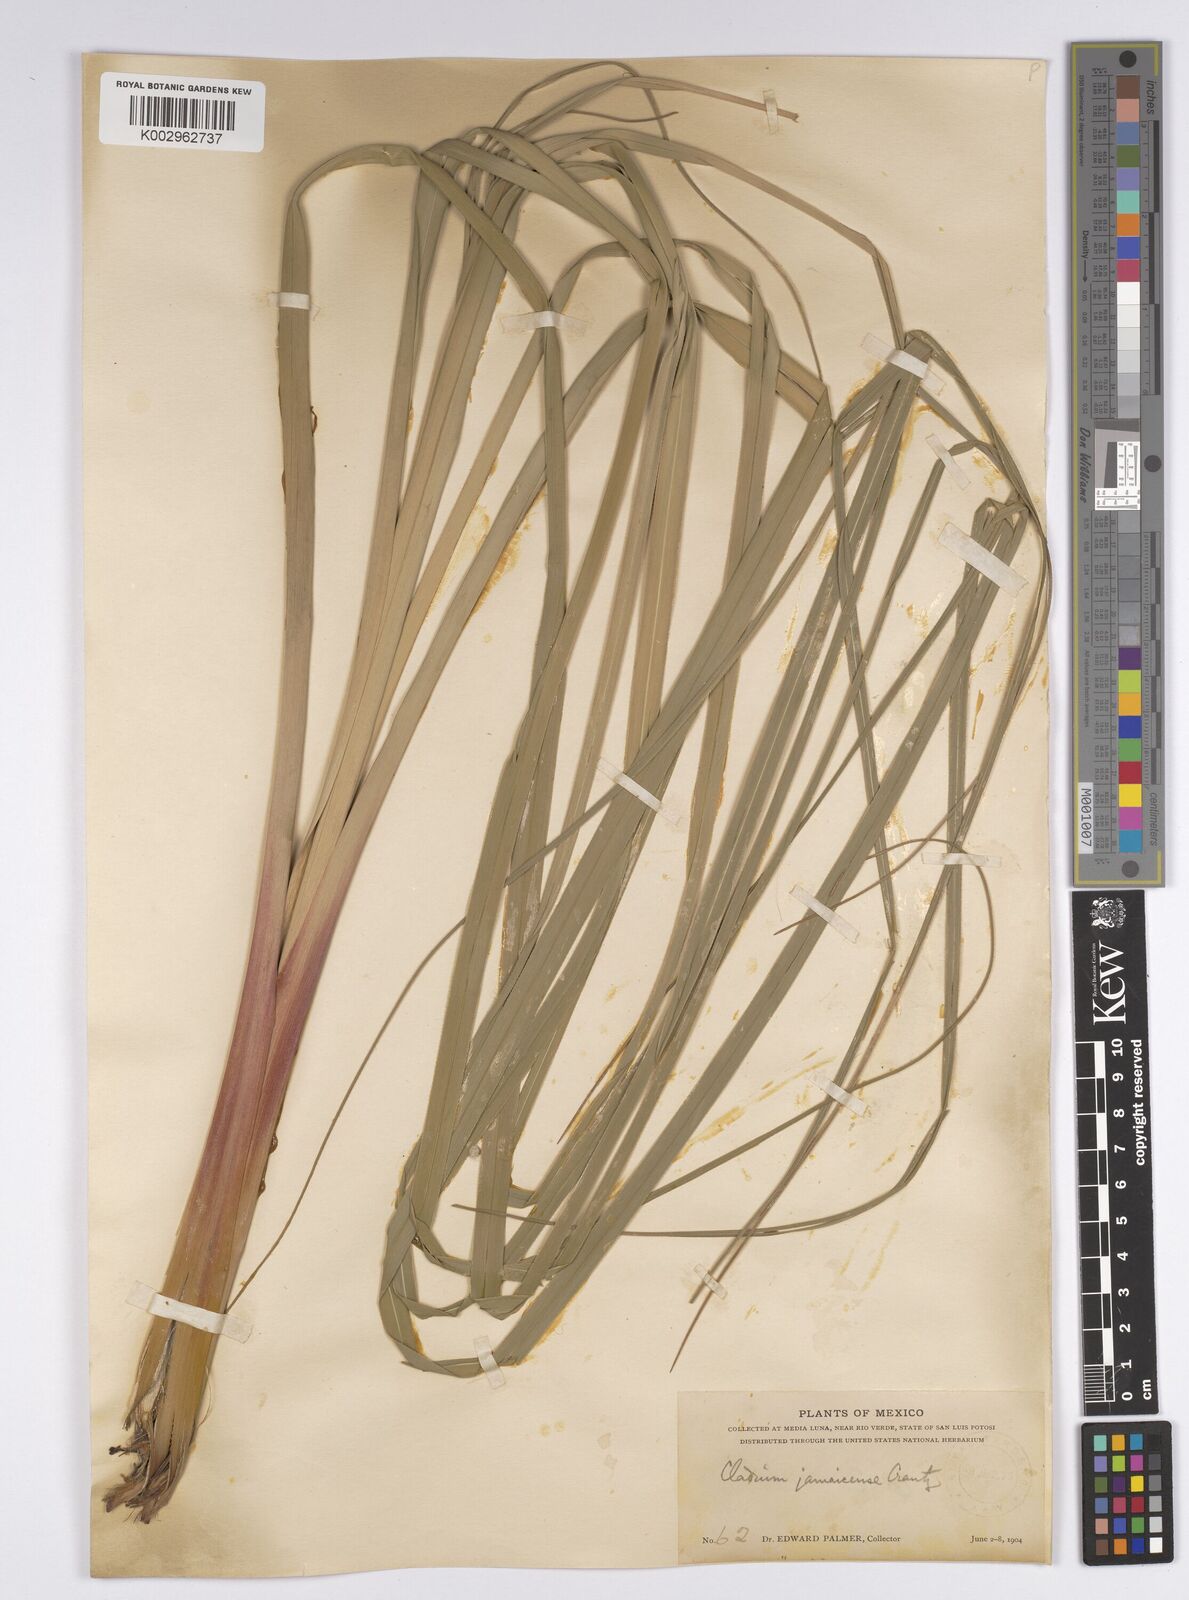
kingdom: Plantae
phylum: Tracheophyta
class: Liliopsida
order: Poales
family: Cyperaceae
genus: Cladium
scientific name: Cladium mariscus
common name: Great fen-sedge
